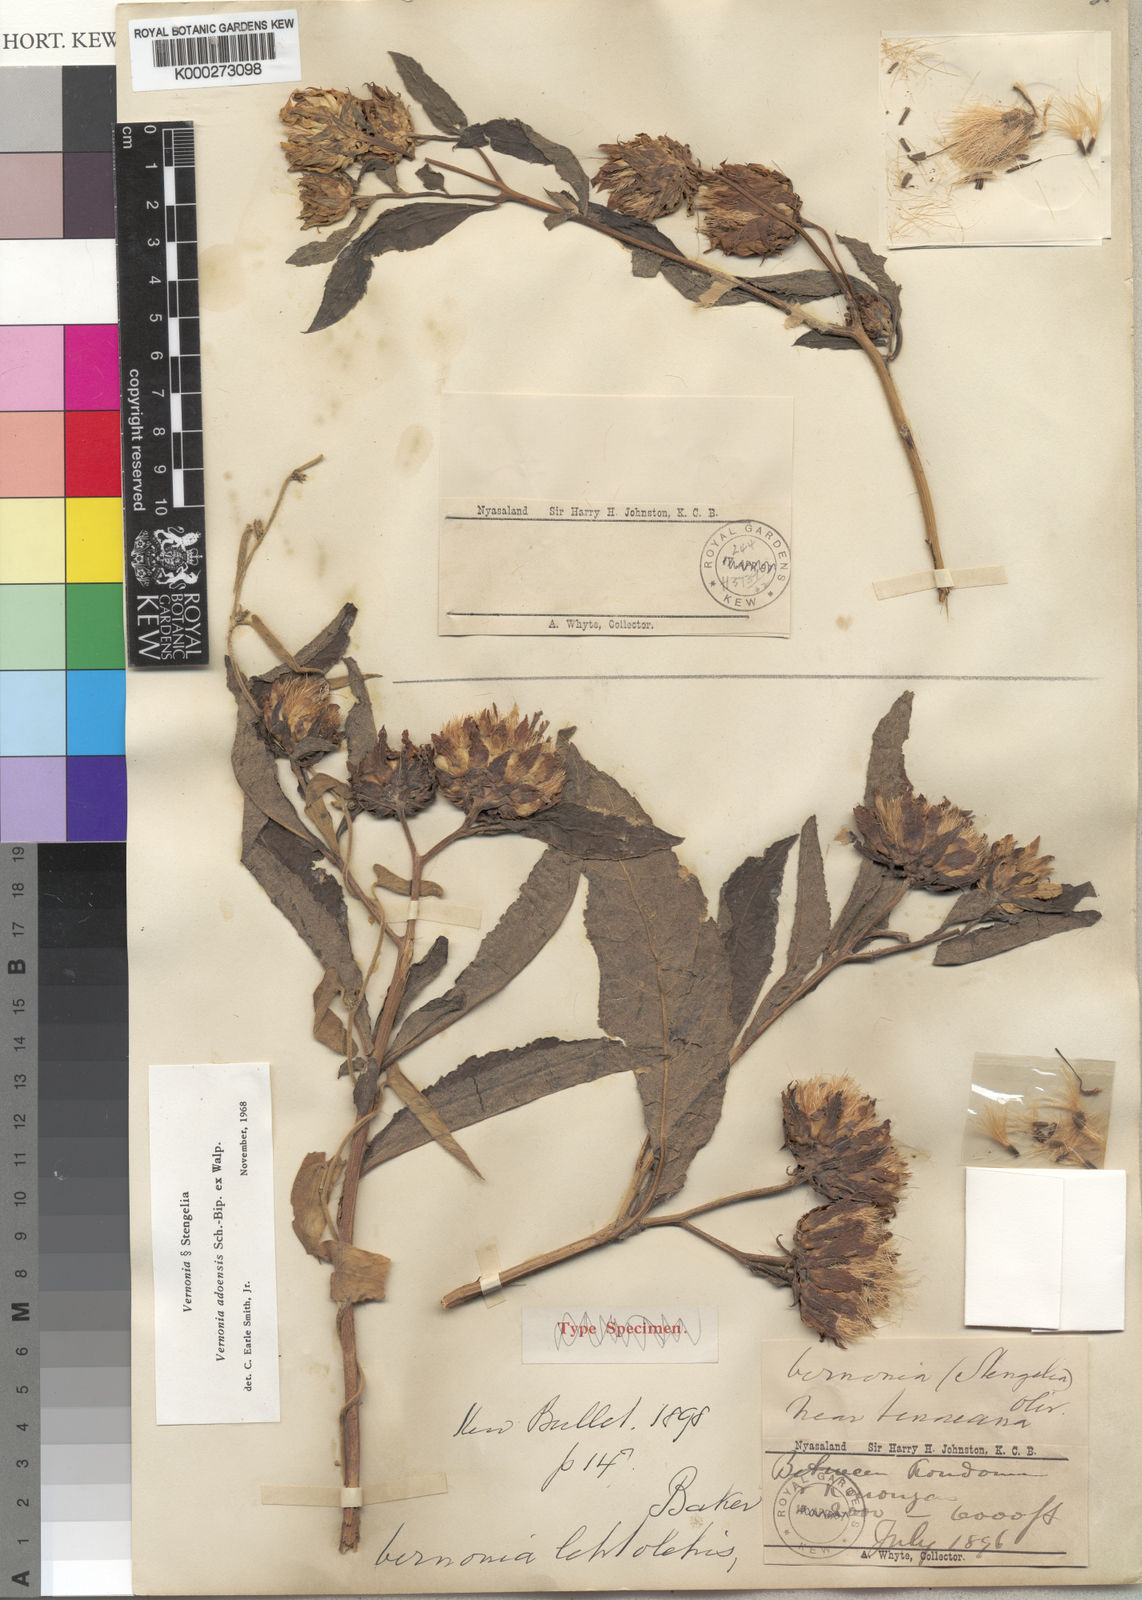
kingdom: Plantae
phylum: Tracheophyta
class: Magnoliopsida
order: Asterales
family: Asteraceae
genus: Baccharoides
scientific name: Baccharoides adoensis
